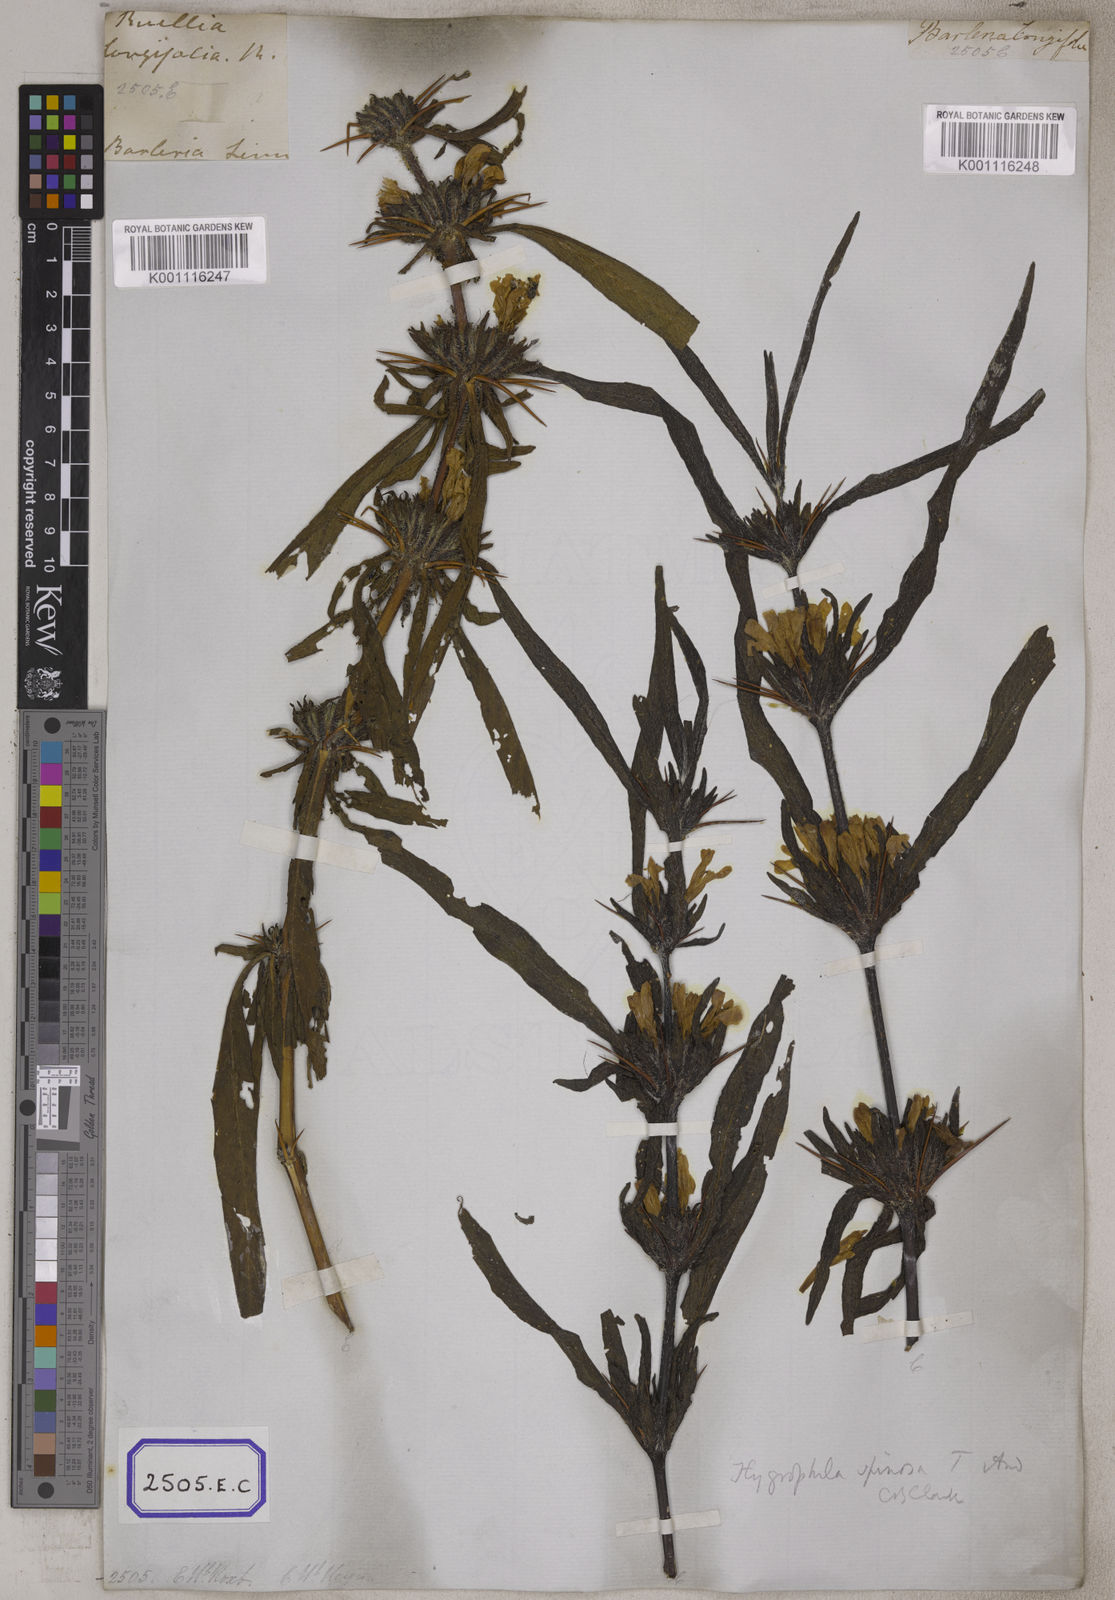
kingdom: Plantae
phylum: Tracheophyta
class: Magnoliopsida
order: Lamiales
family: Acanthaceae
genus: Barleria
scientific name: Barleria longiflora
